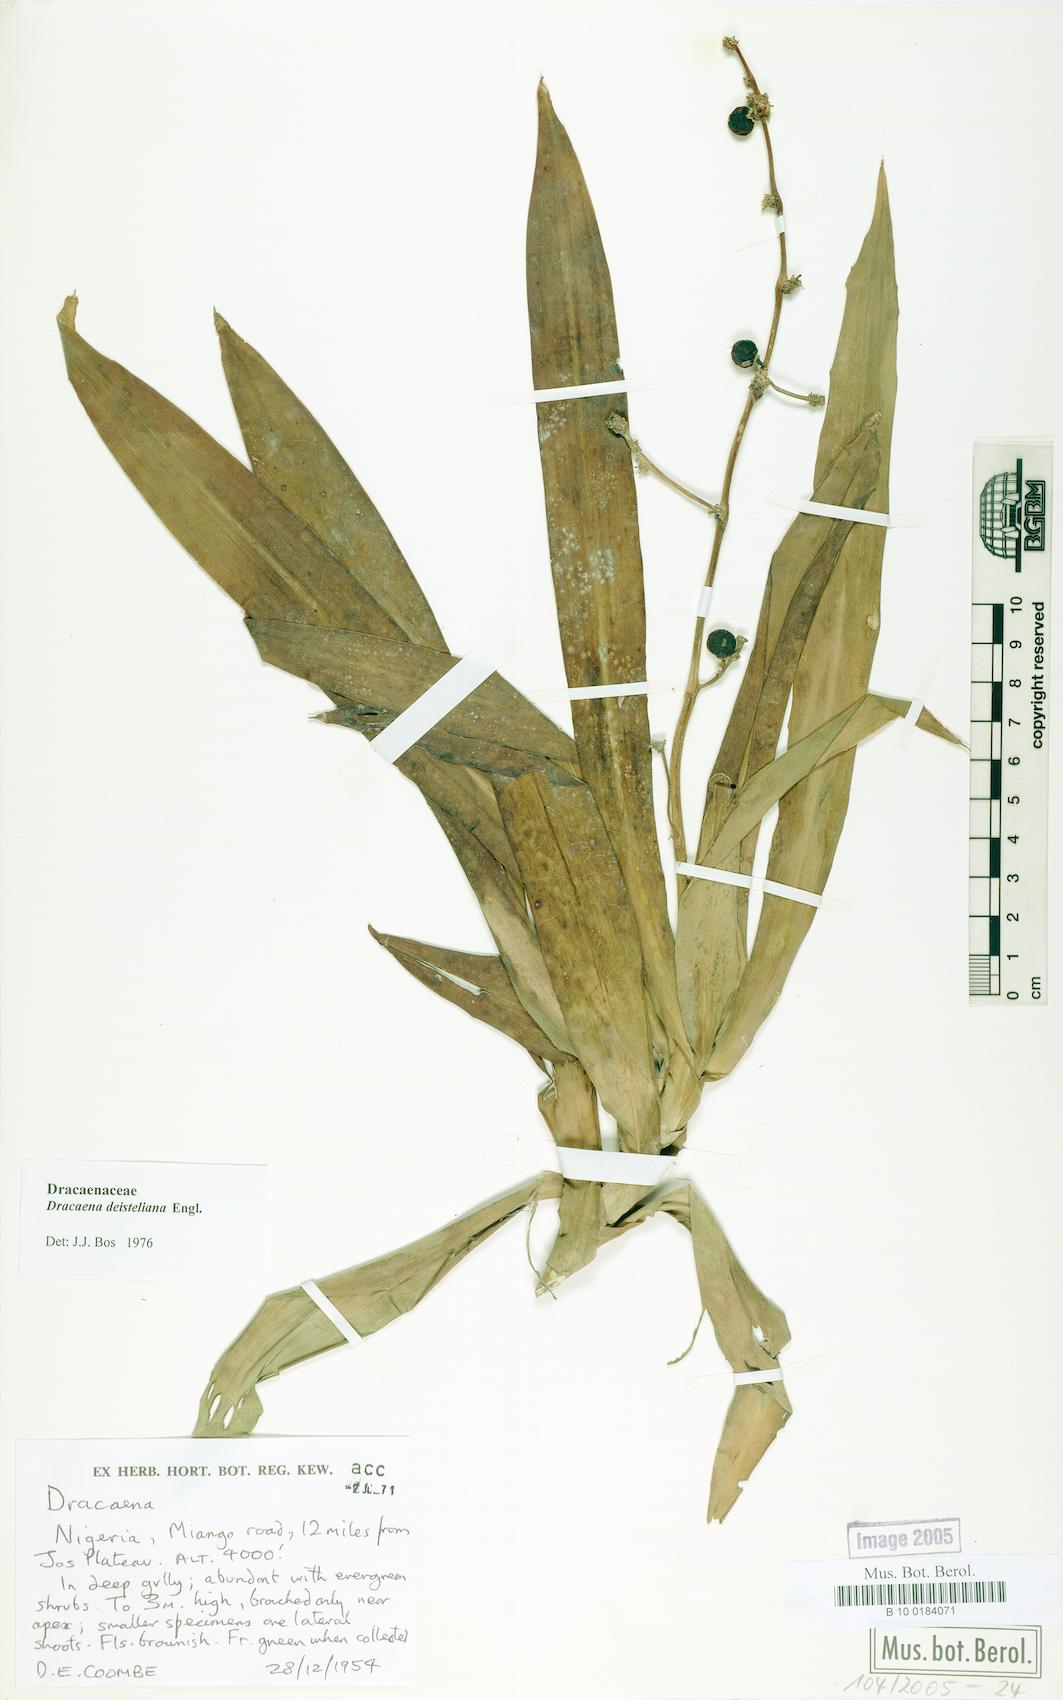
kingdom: Plantae
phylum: Tracheophyta
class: Liliopsida
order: Asparagales
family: Asparagaceae
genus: Dracaena
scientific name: Dracaena fragrans
